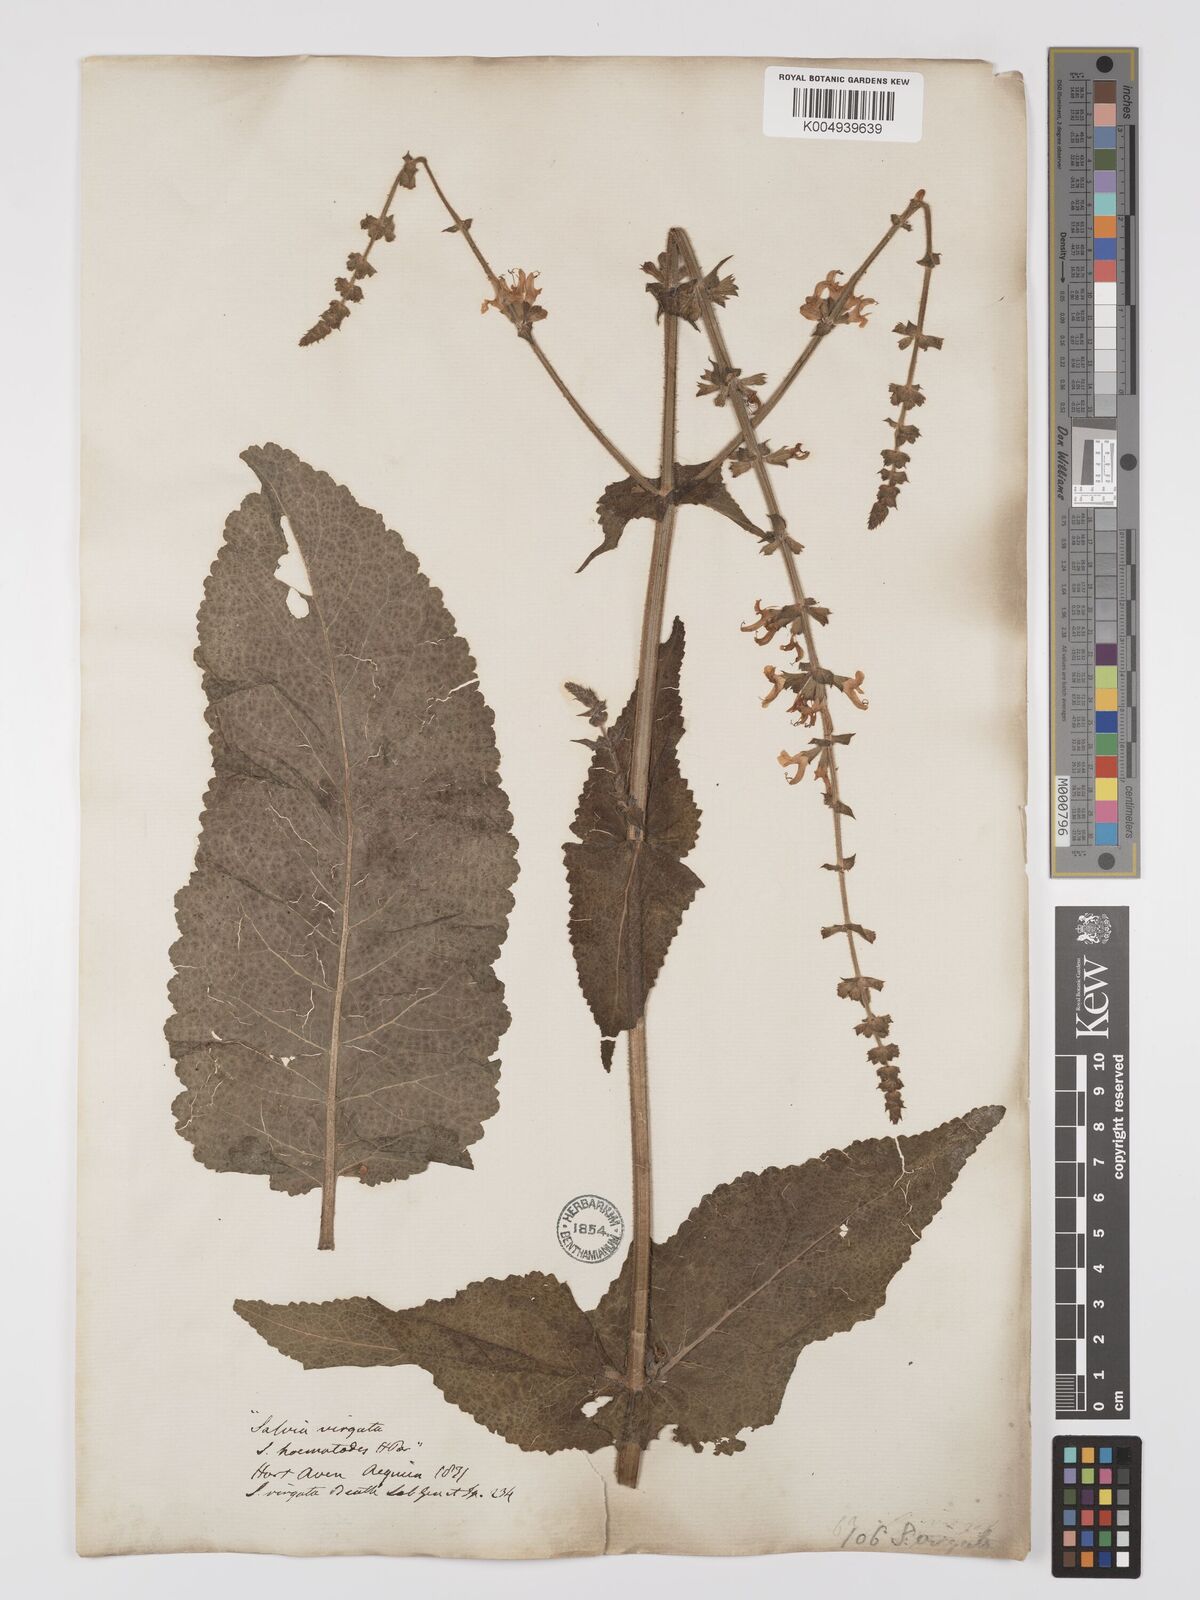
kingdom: Plantae
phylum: Tracheophyta
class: Magnoliopsida
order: Lamiales
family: Lamiaceae
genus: Salvia
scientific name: Salvia
